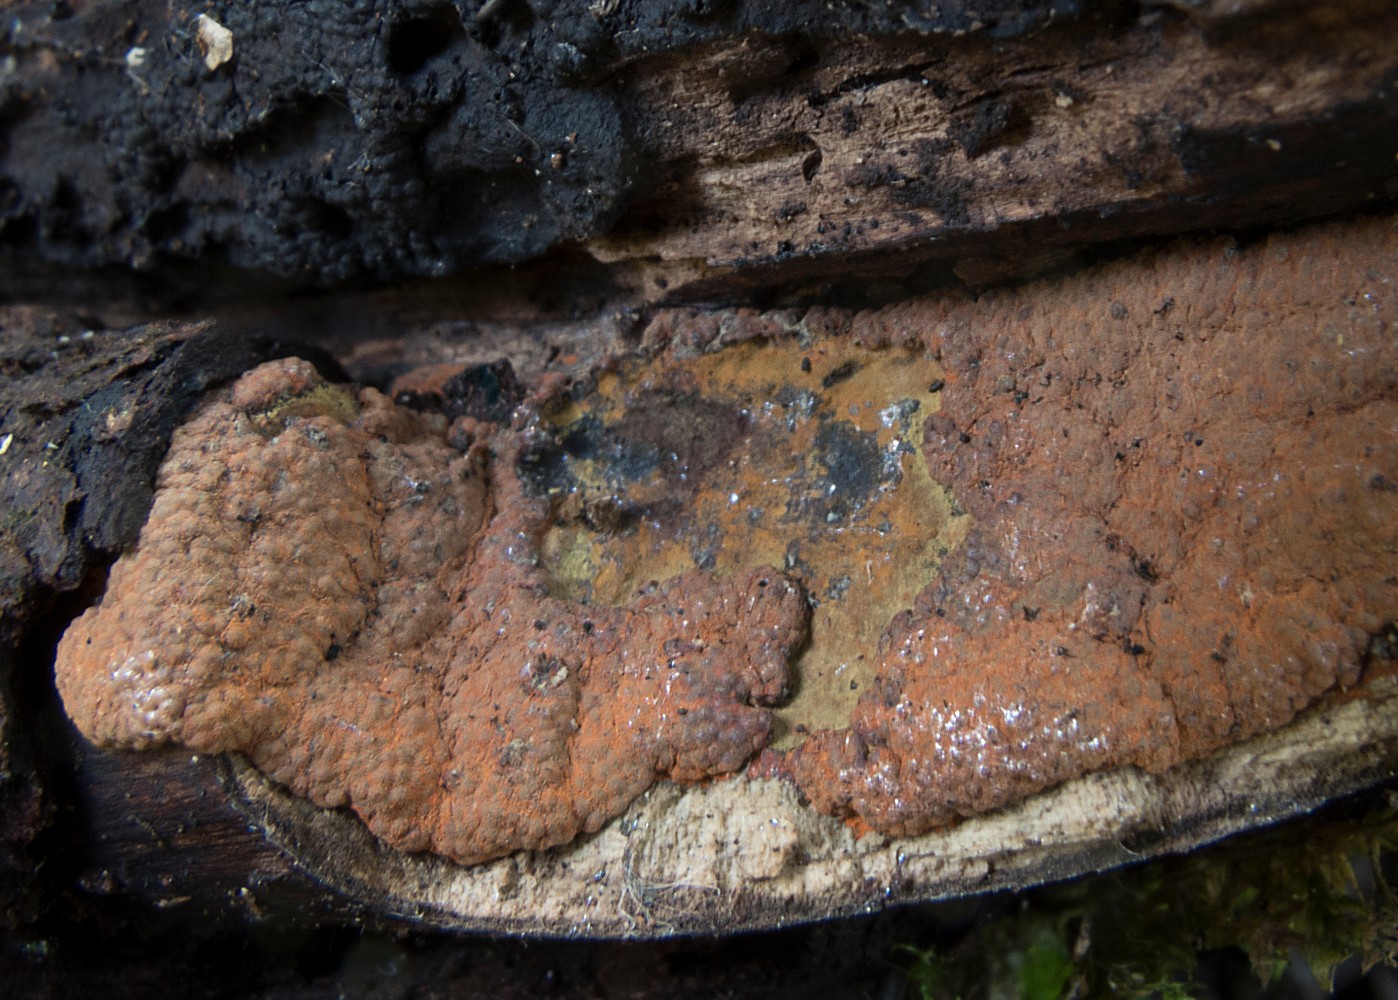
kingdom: Fungi
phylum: Ascomycota
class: Sordariomycetes
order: Xylariales
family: Hypoxylaceae
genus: Hypoxylon
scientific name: Hypoxylon rubiginosum
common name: rustfarvet kulbær
